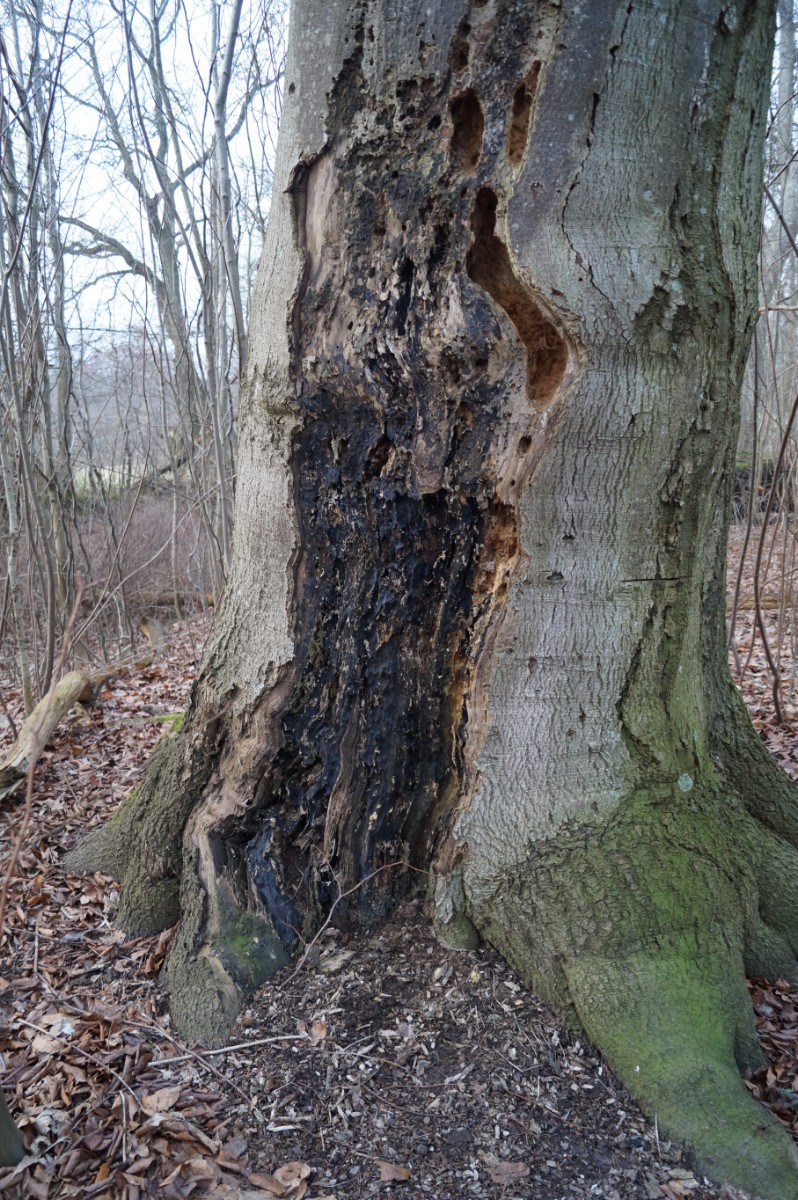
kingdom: Fungi
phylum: Ascomycota
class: Sordariomycetes
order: Xylariales
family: Xylariaceae
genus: Kretzschmaria
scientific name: Kretzschmaria deusta
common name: stor kulsvamp
